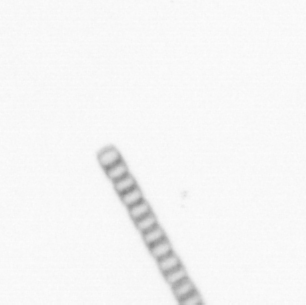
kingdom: Chromista
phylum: Ochrophyta
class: Bacillariophyceae
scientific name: Bacillariophyceae
